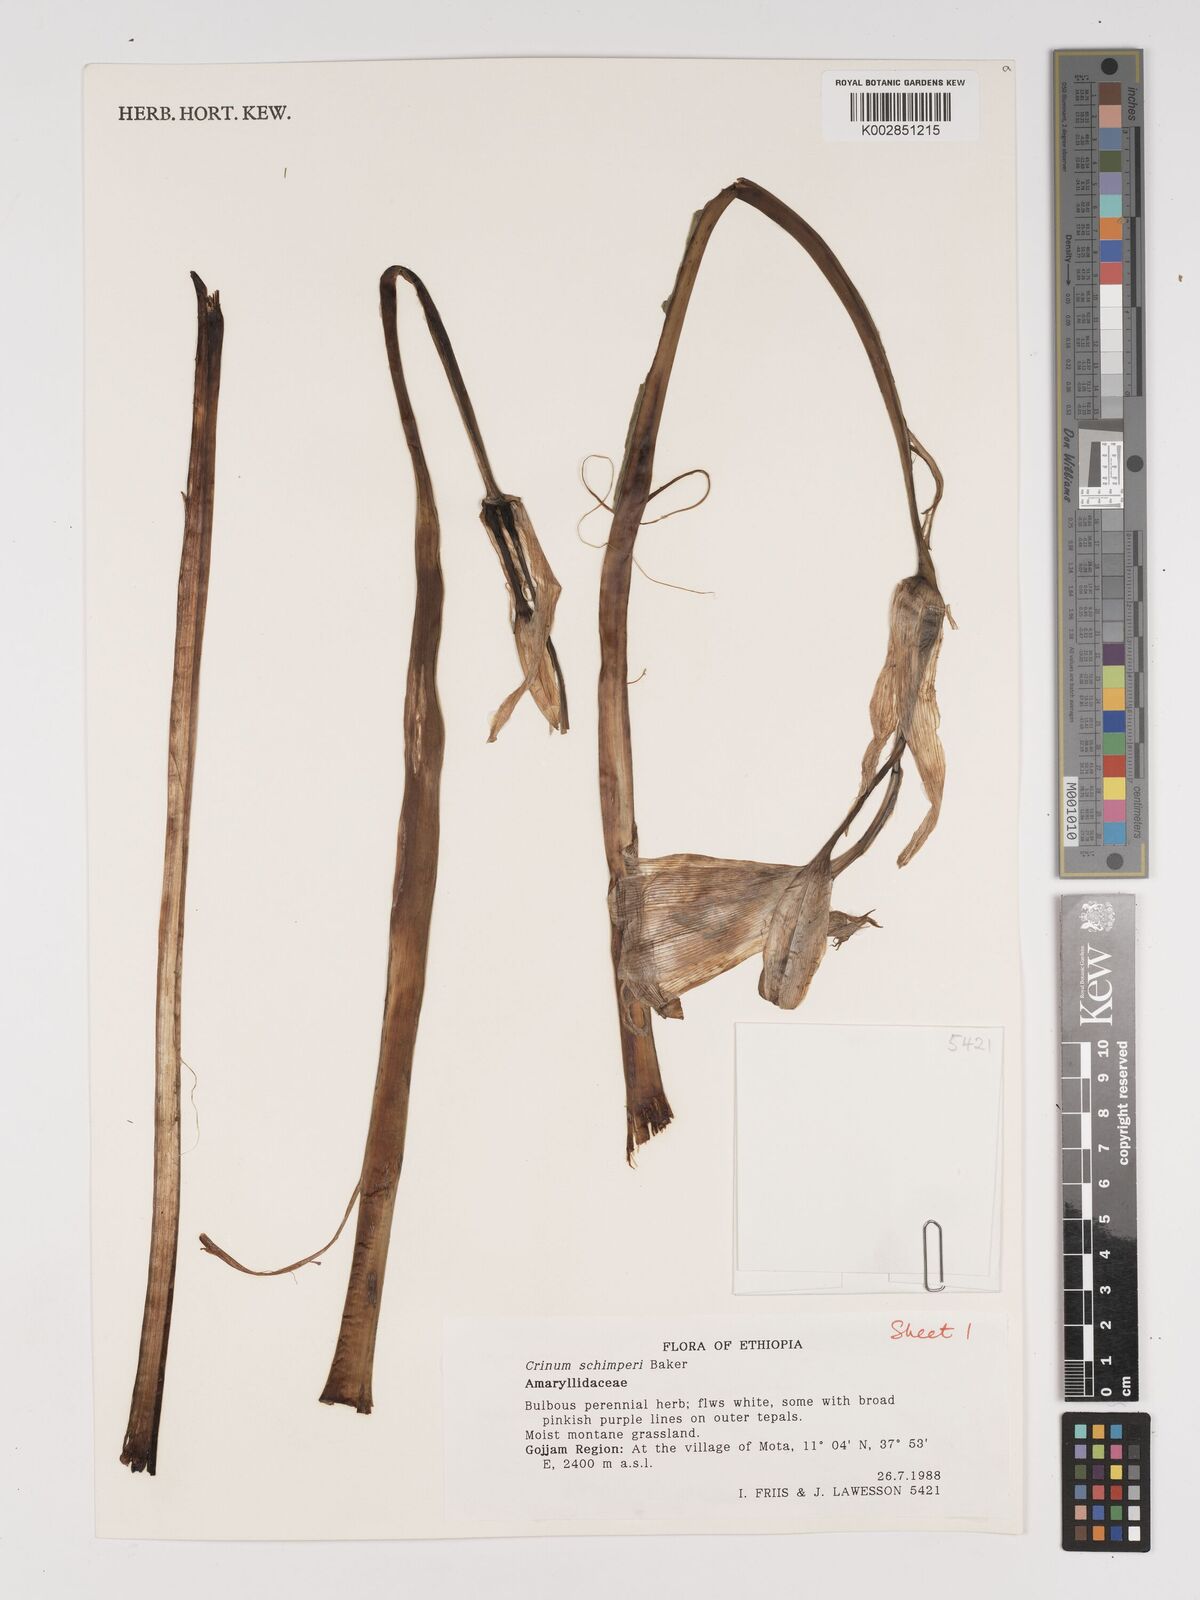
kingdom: Plantae
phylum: Tracheophyta
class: Liliopsida
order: Asparagales
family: Amaryllidaceae
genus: Crinum
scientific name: Crinum abyssinicum
